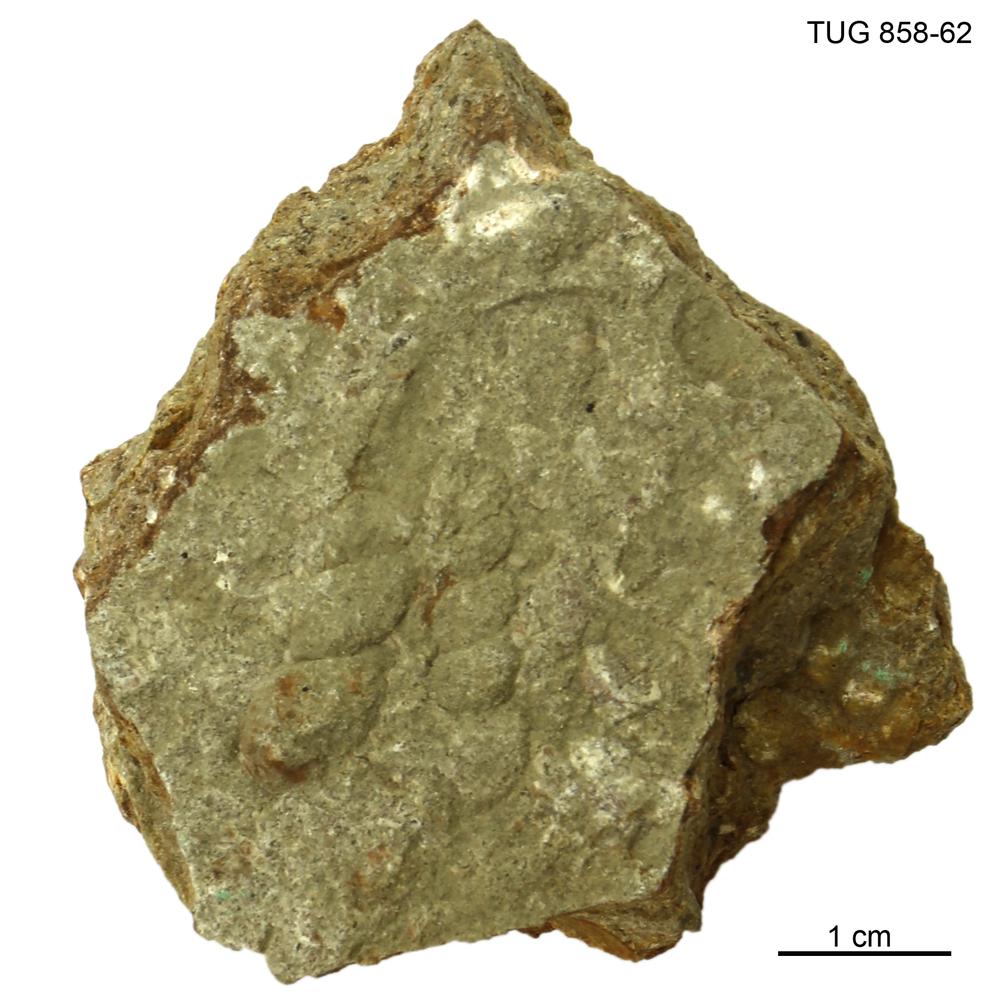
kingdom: Animalia
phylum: Mollusca
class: Gastropoda
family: Loxonematidae
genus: Loxonema
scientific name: Loxonema
